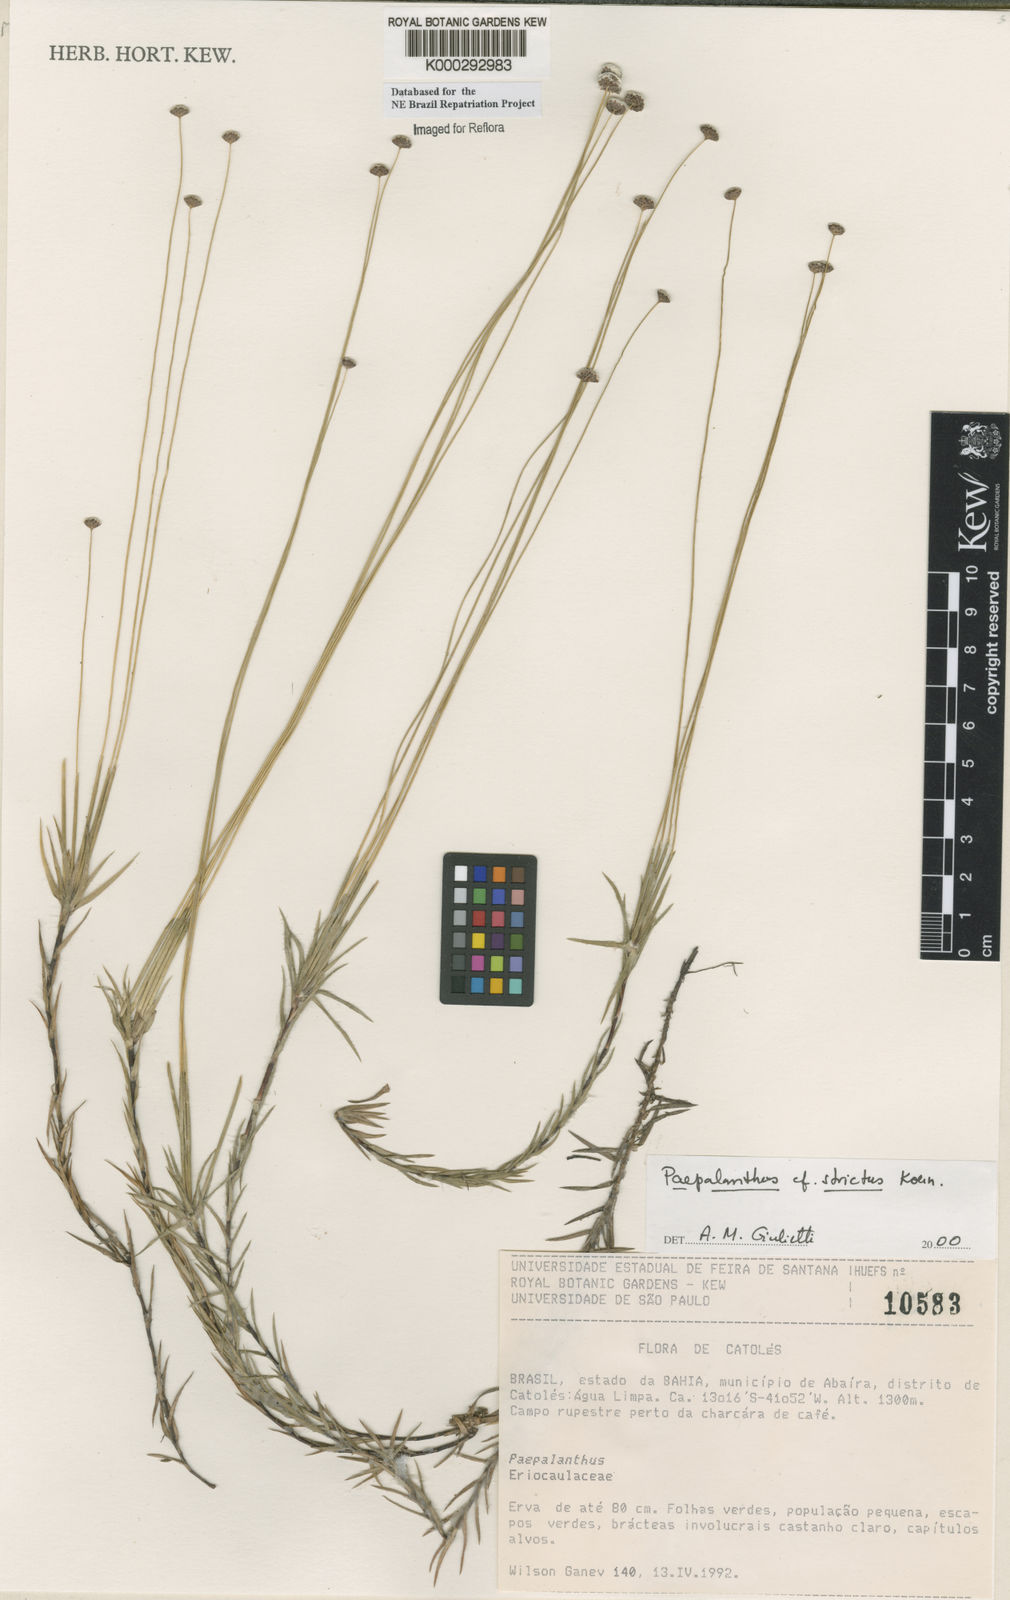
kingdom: Plantae
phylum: Tracheophyta
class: Liliopsida
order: Poales
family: Eriocaulaceae
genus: Paepalanthus
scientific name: Paepalanthus
